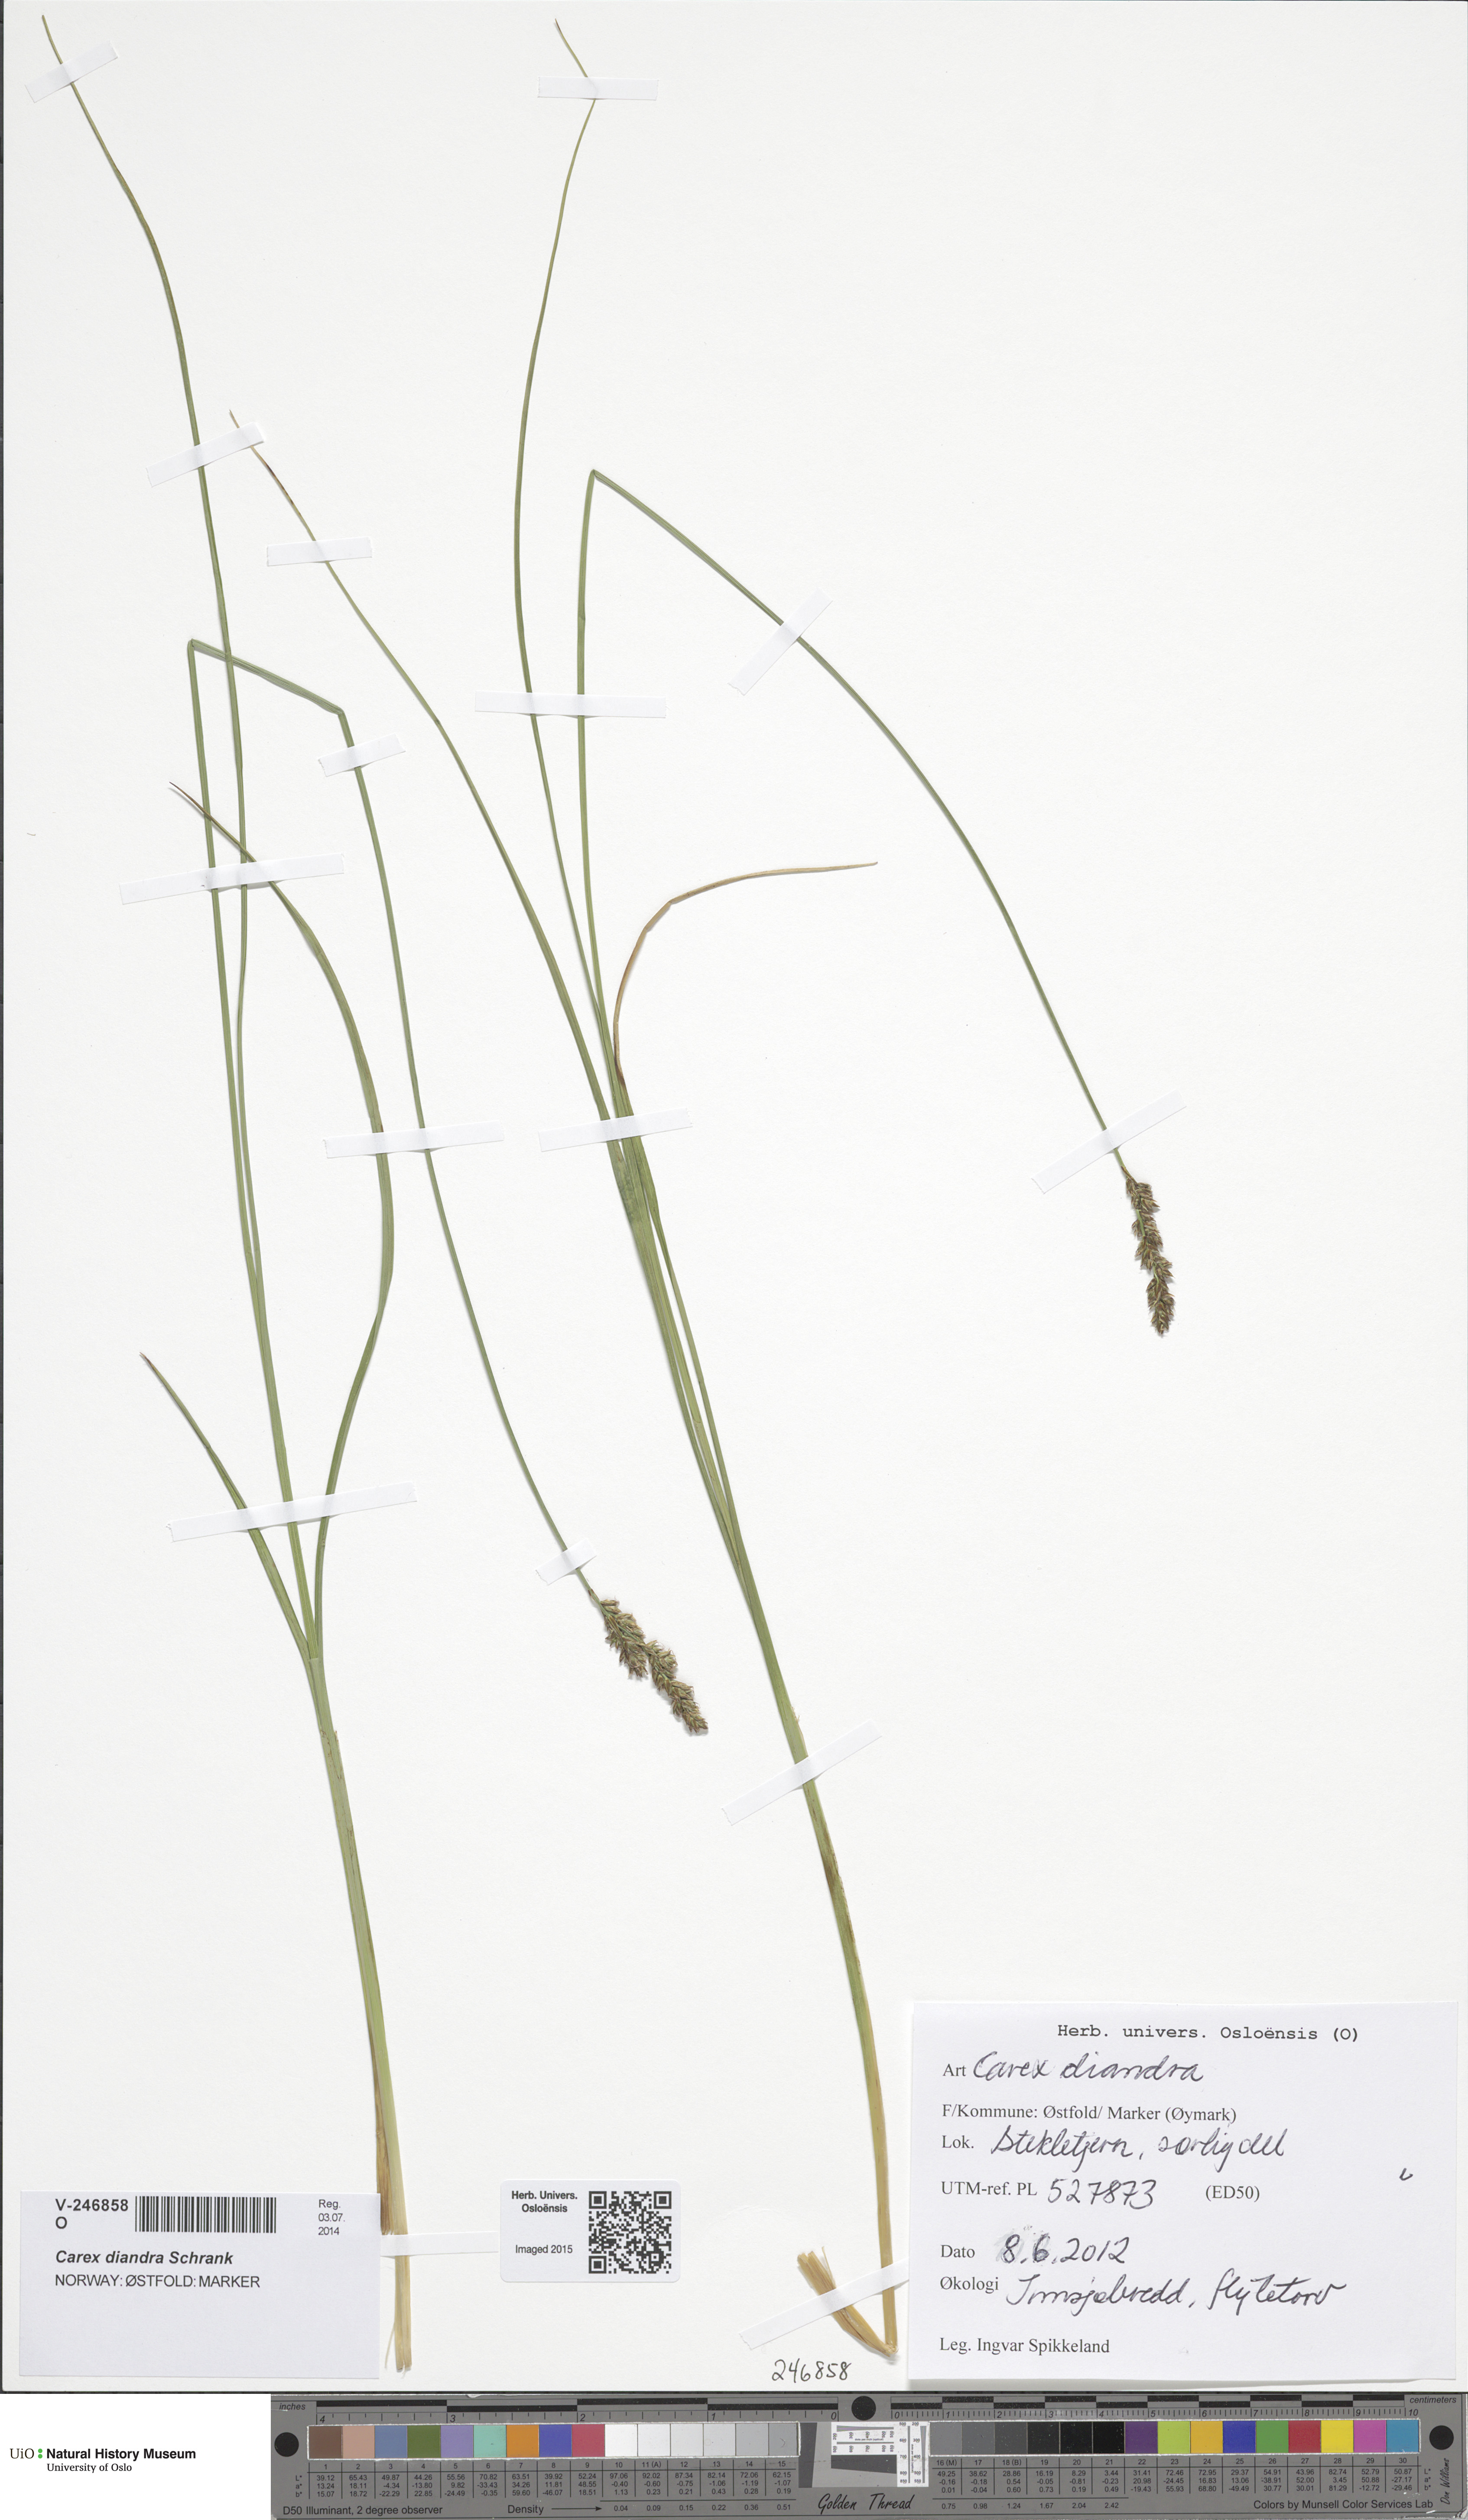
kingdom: Plantae
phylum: Tracheophyta
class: Liliopsida
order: Poales
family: Cyperaceae
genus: Carex
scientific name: Carex diandra
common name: Lesser tussock-sedge
